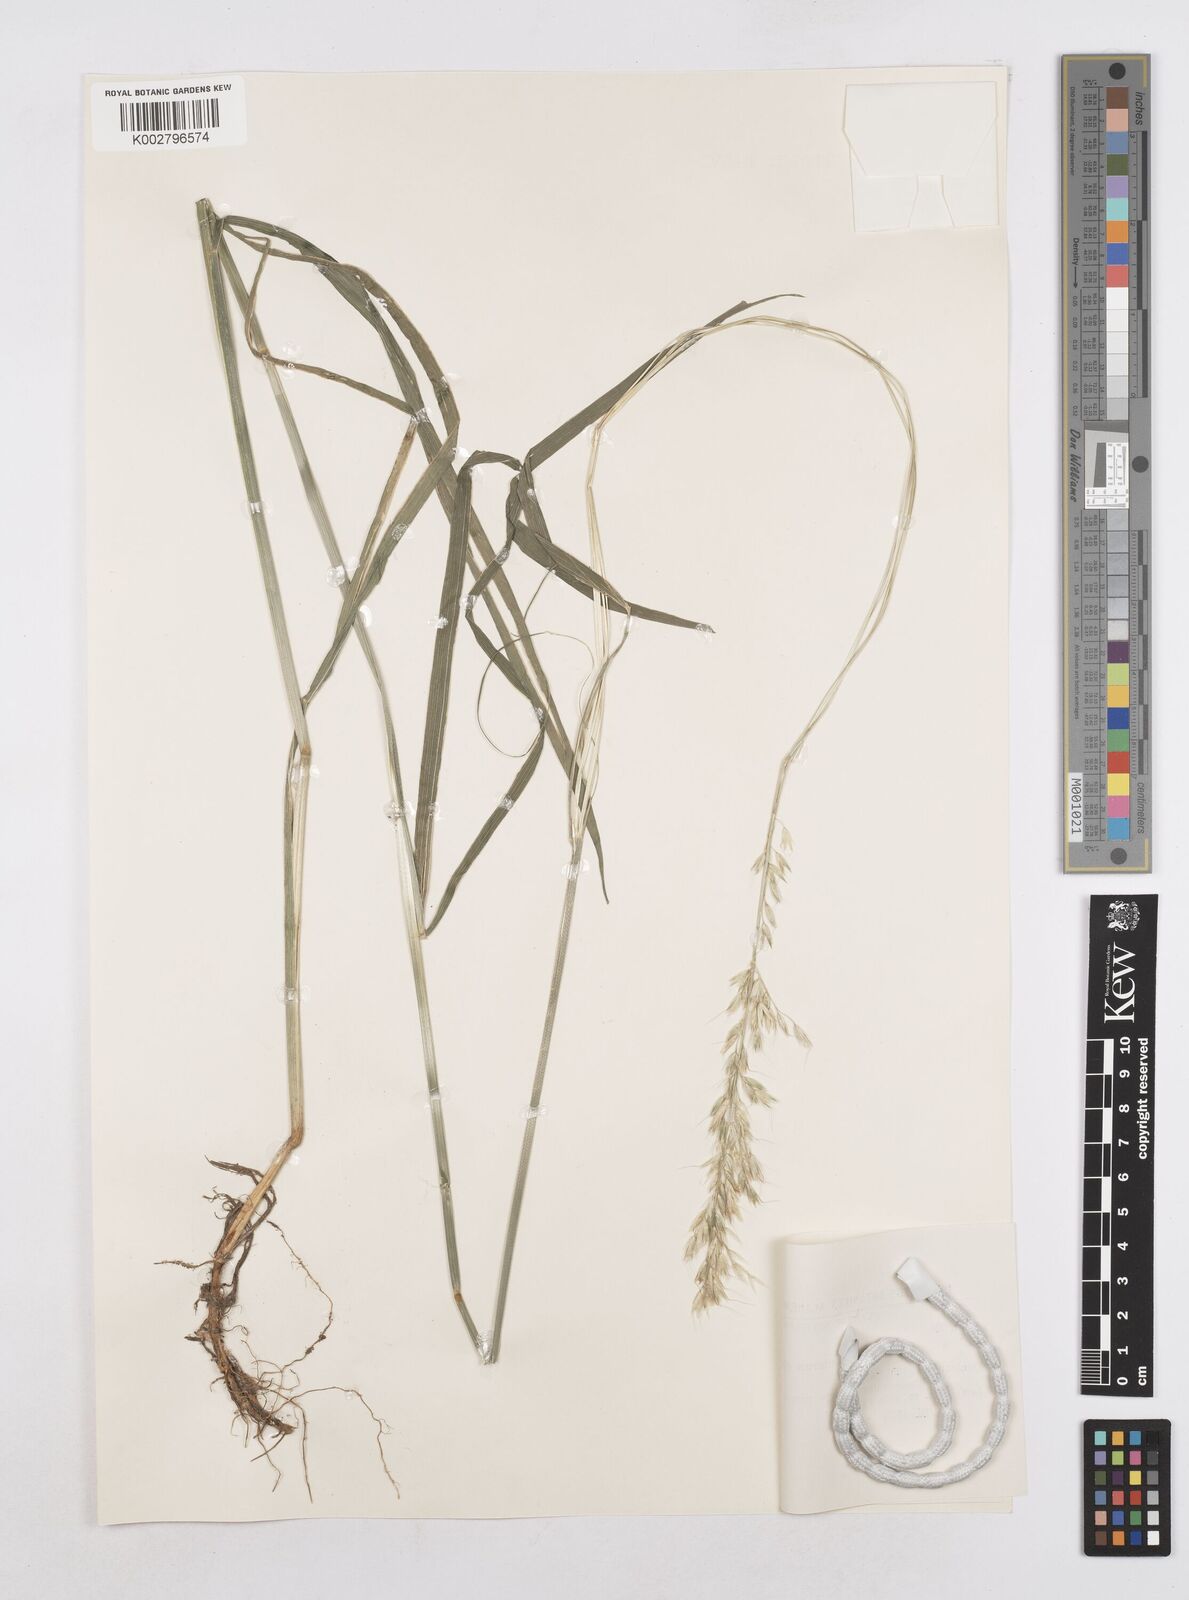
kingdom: Plantae
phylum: Tracheophyta
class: Liliopsida
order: Poales
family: Poaceae
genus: Arrhenatherum
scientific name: Arrhenatherum elatius
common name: Tall oatgrass
